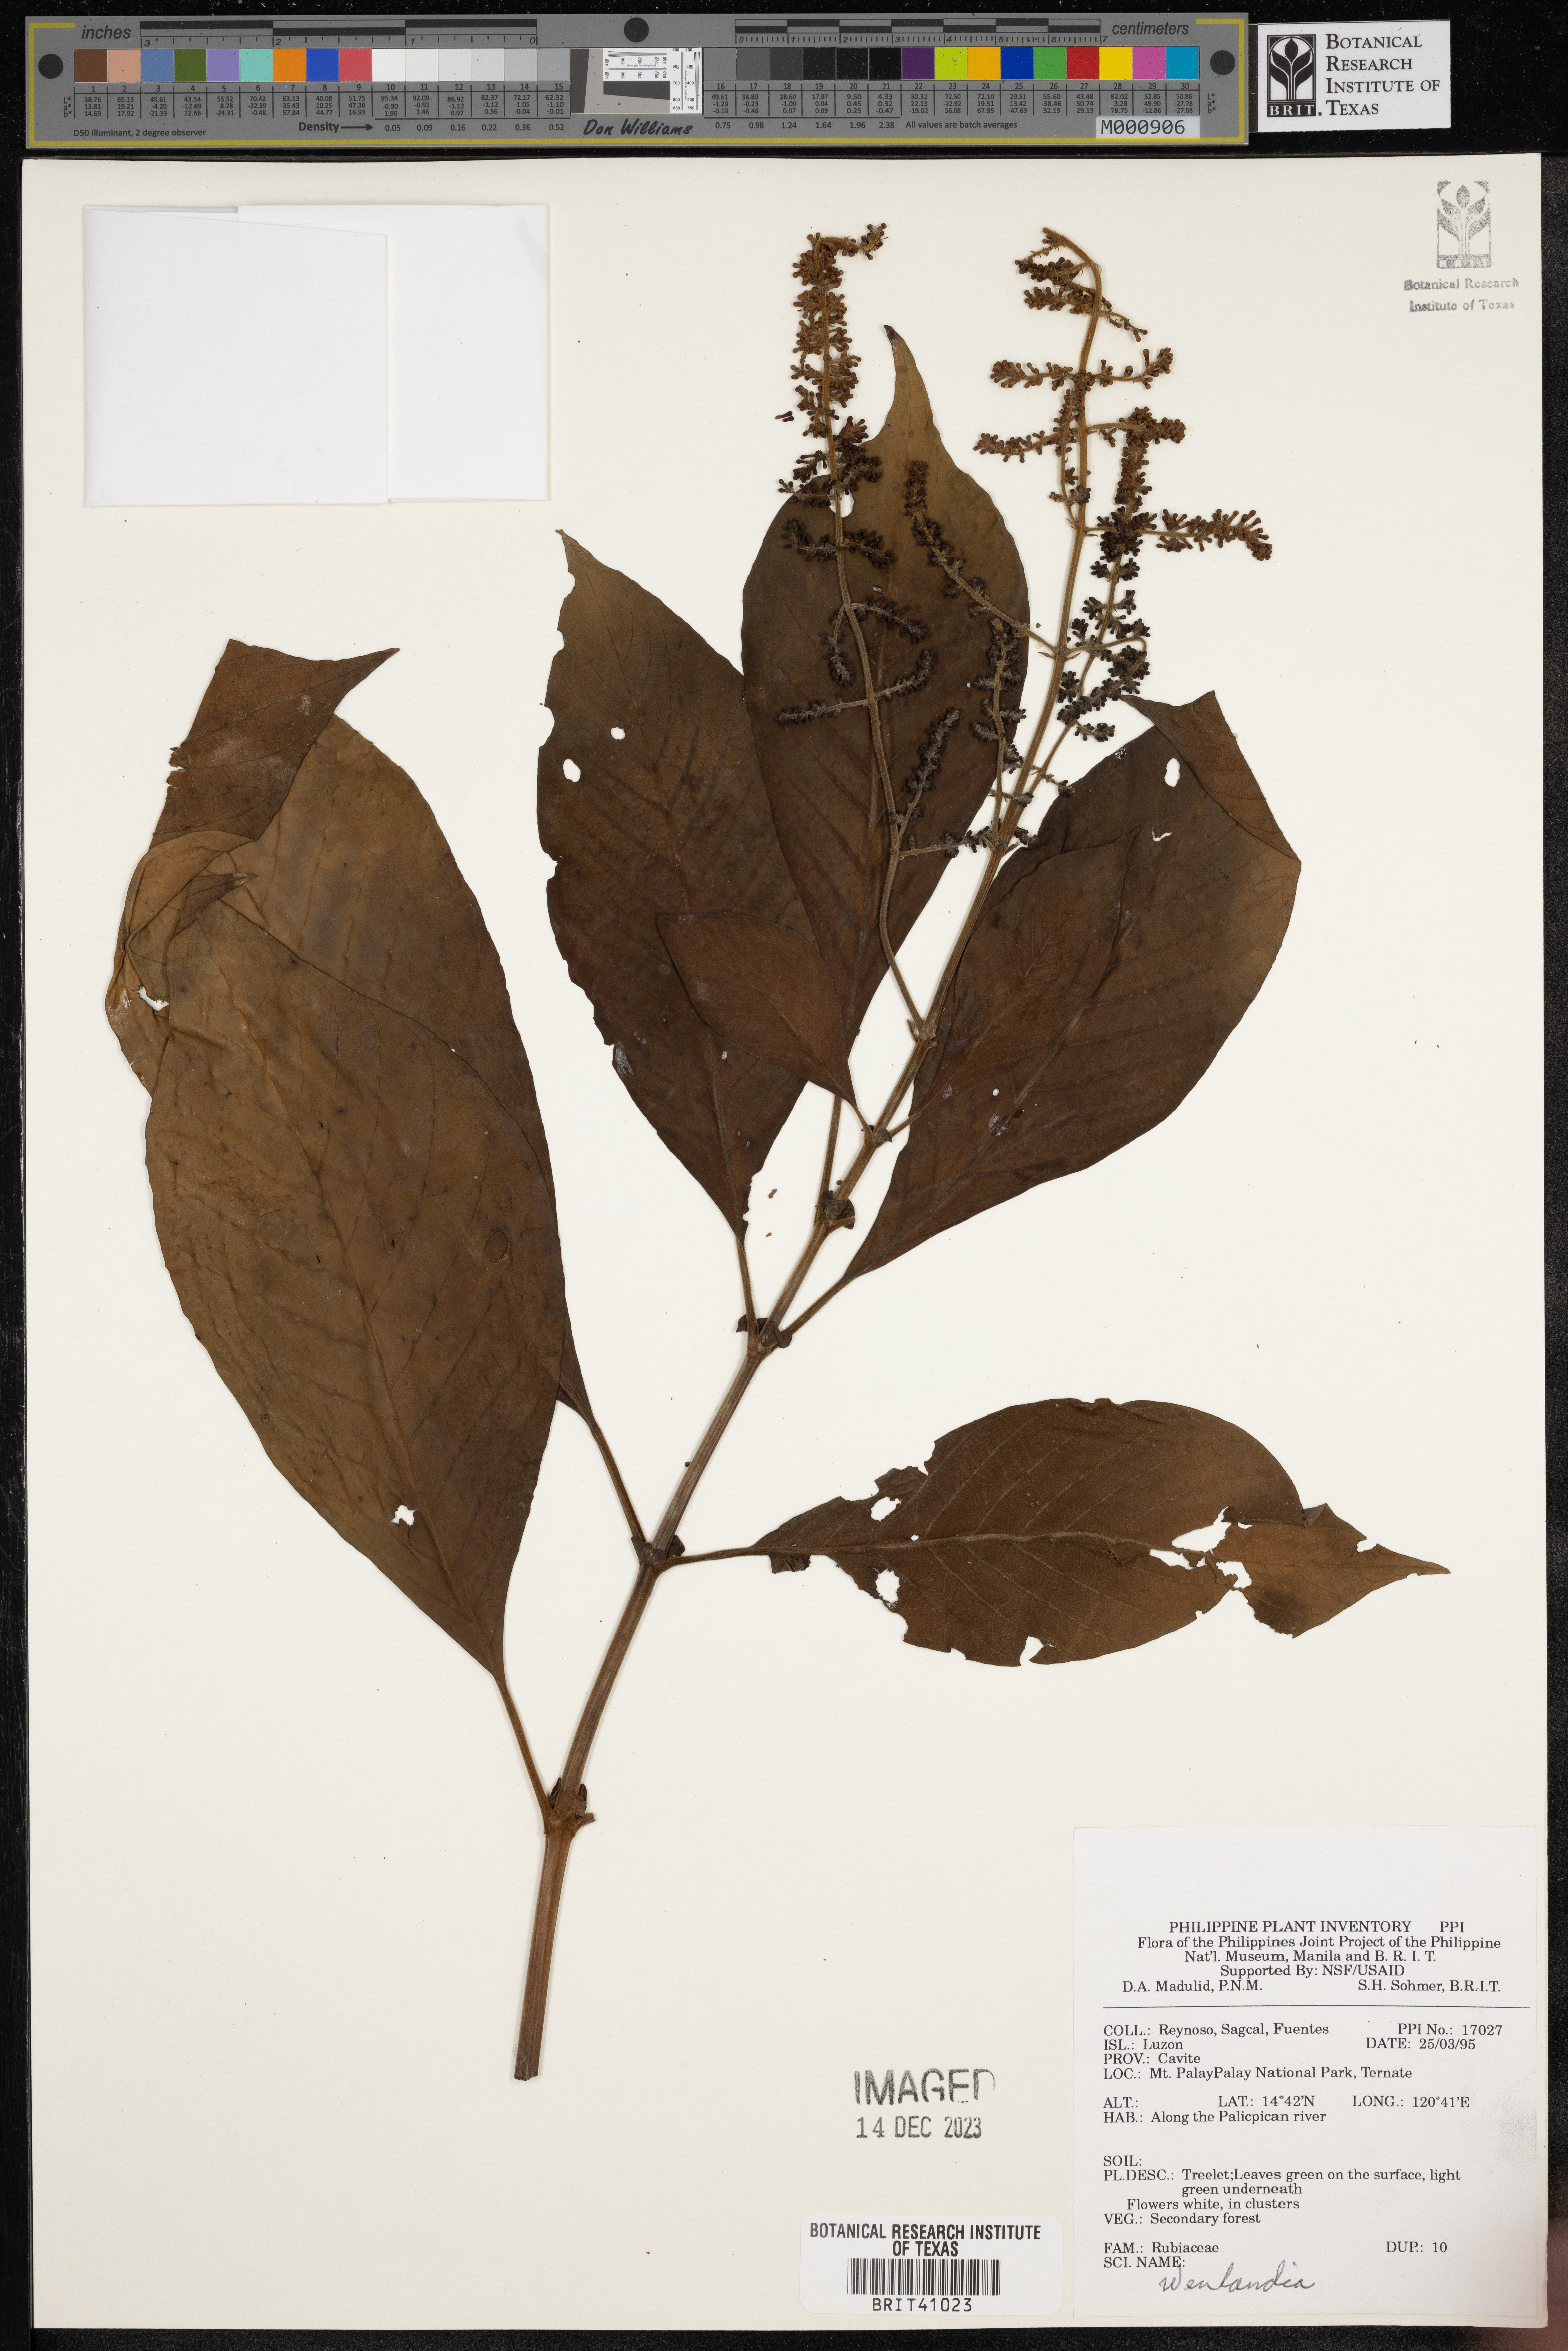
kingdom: Plantae
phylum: Tracheophyta
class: Magnoliopsida
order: Gentianales
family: Rubiaceae
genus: Wendlandia
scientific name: Wendlandia
